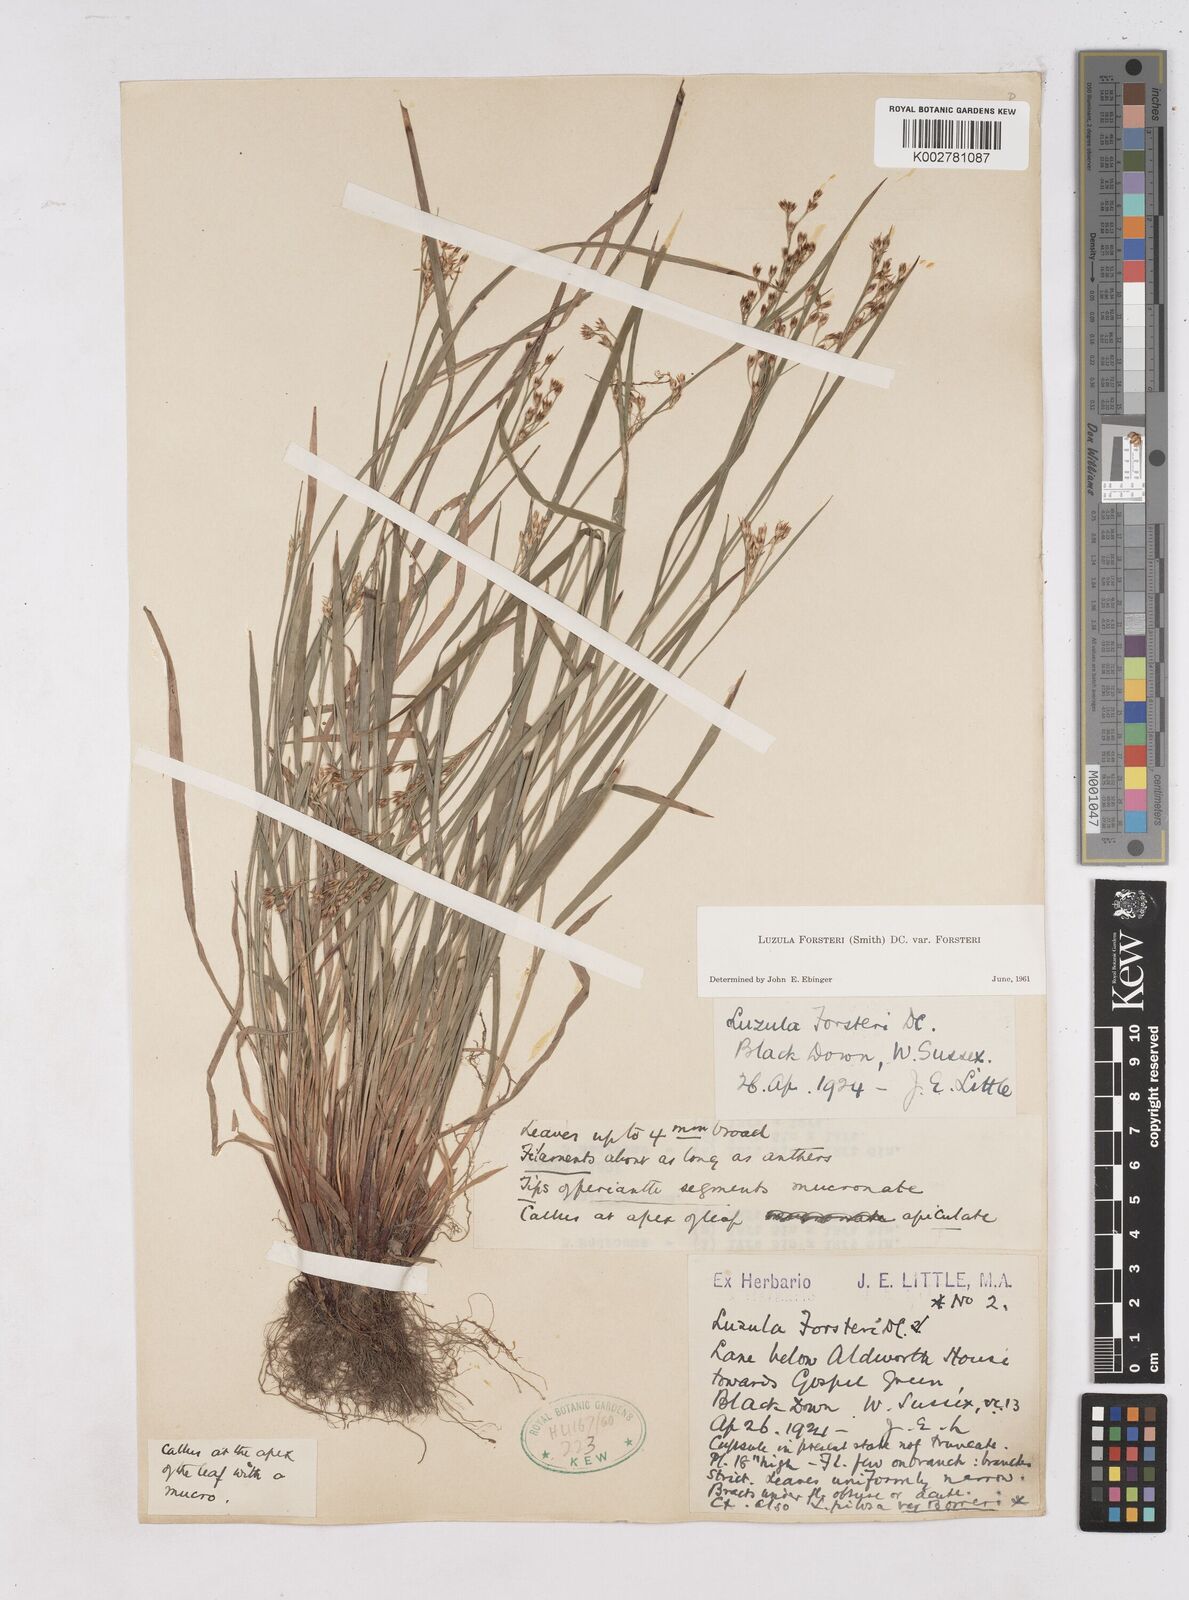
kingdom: Plantae
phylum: Tracheophyta
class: Liliopsida
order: Poales
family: Juncaceae
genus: Luzula
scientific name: Luzula forsteri
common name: Southern wood-rush
